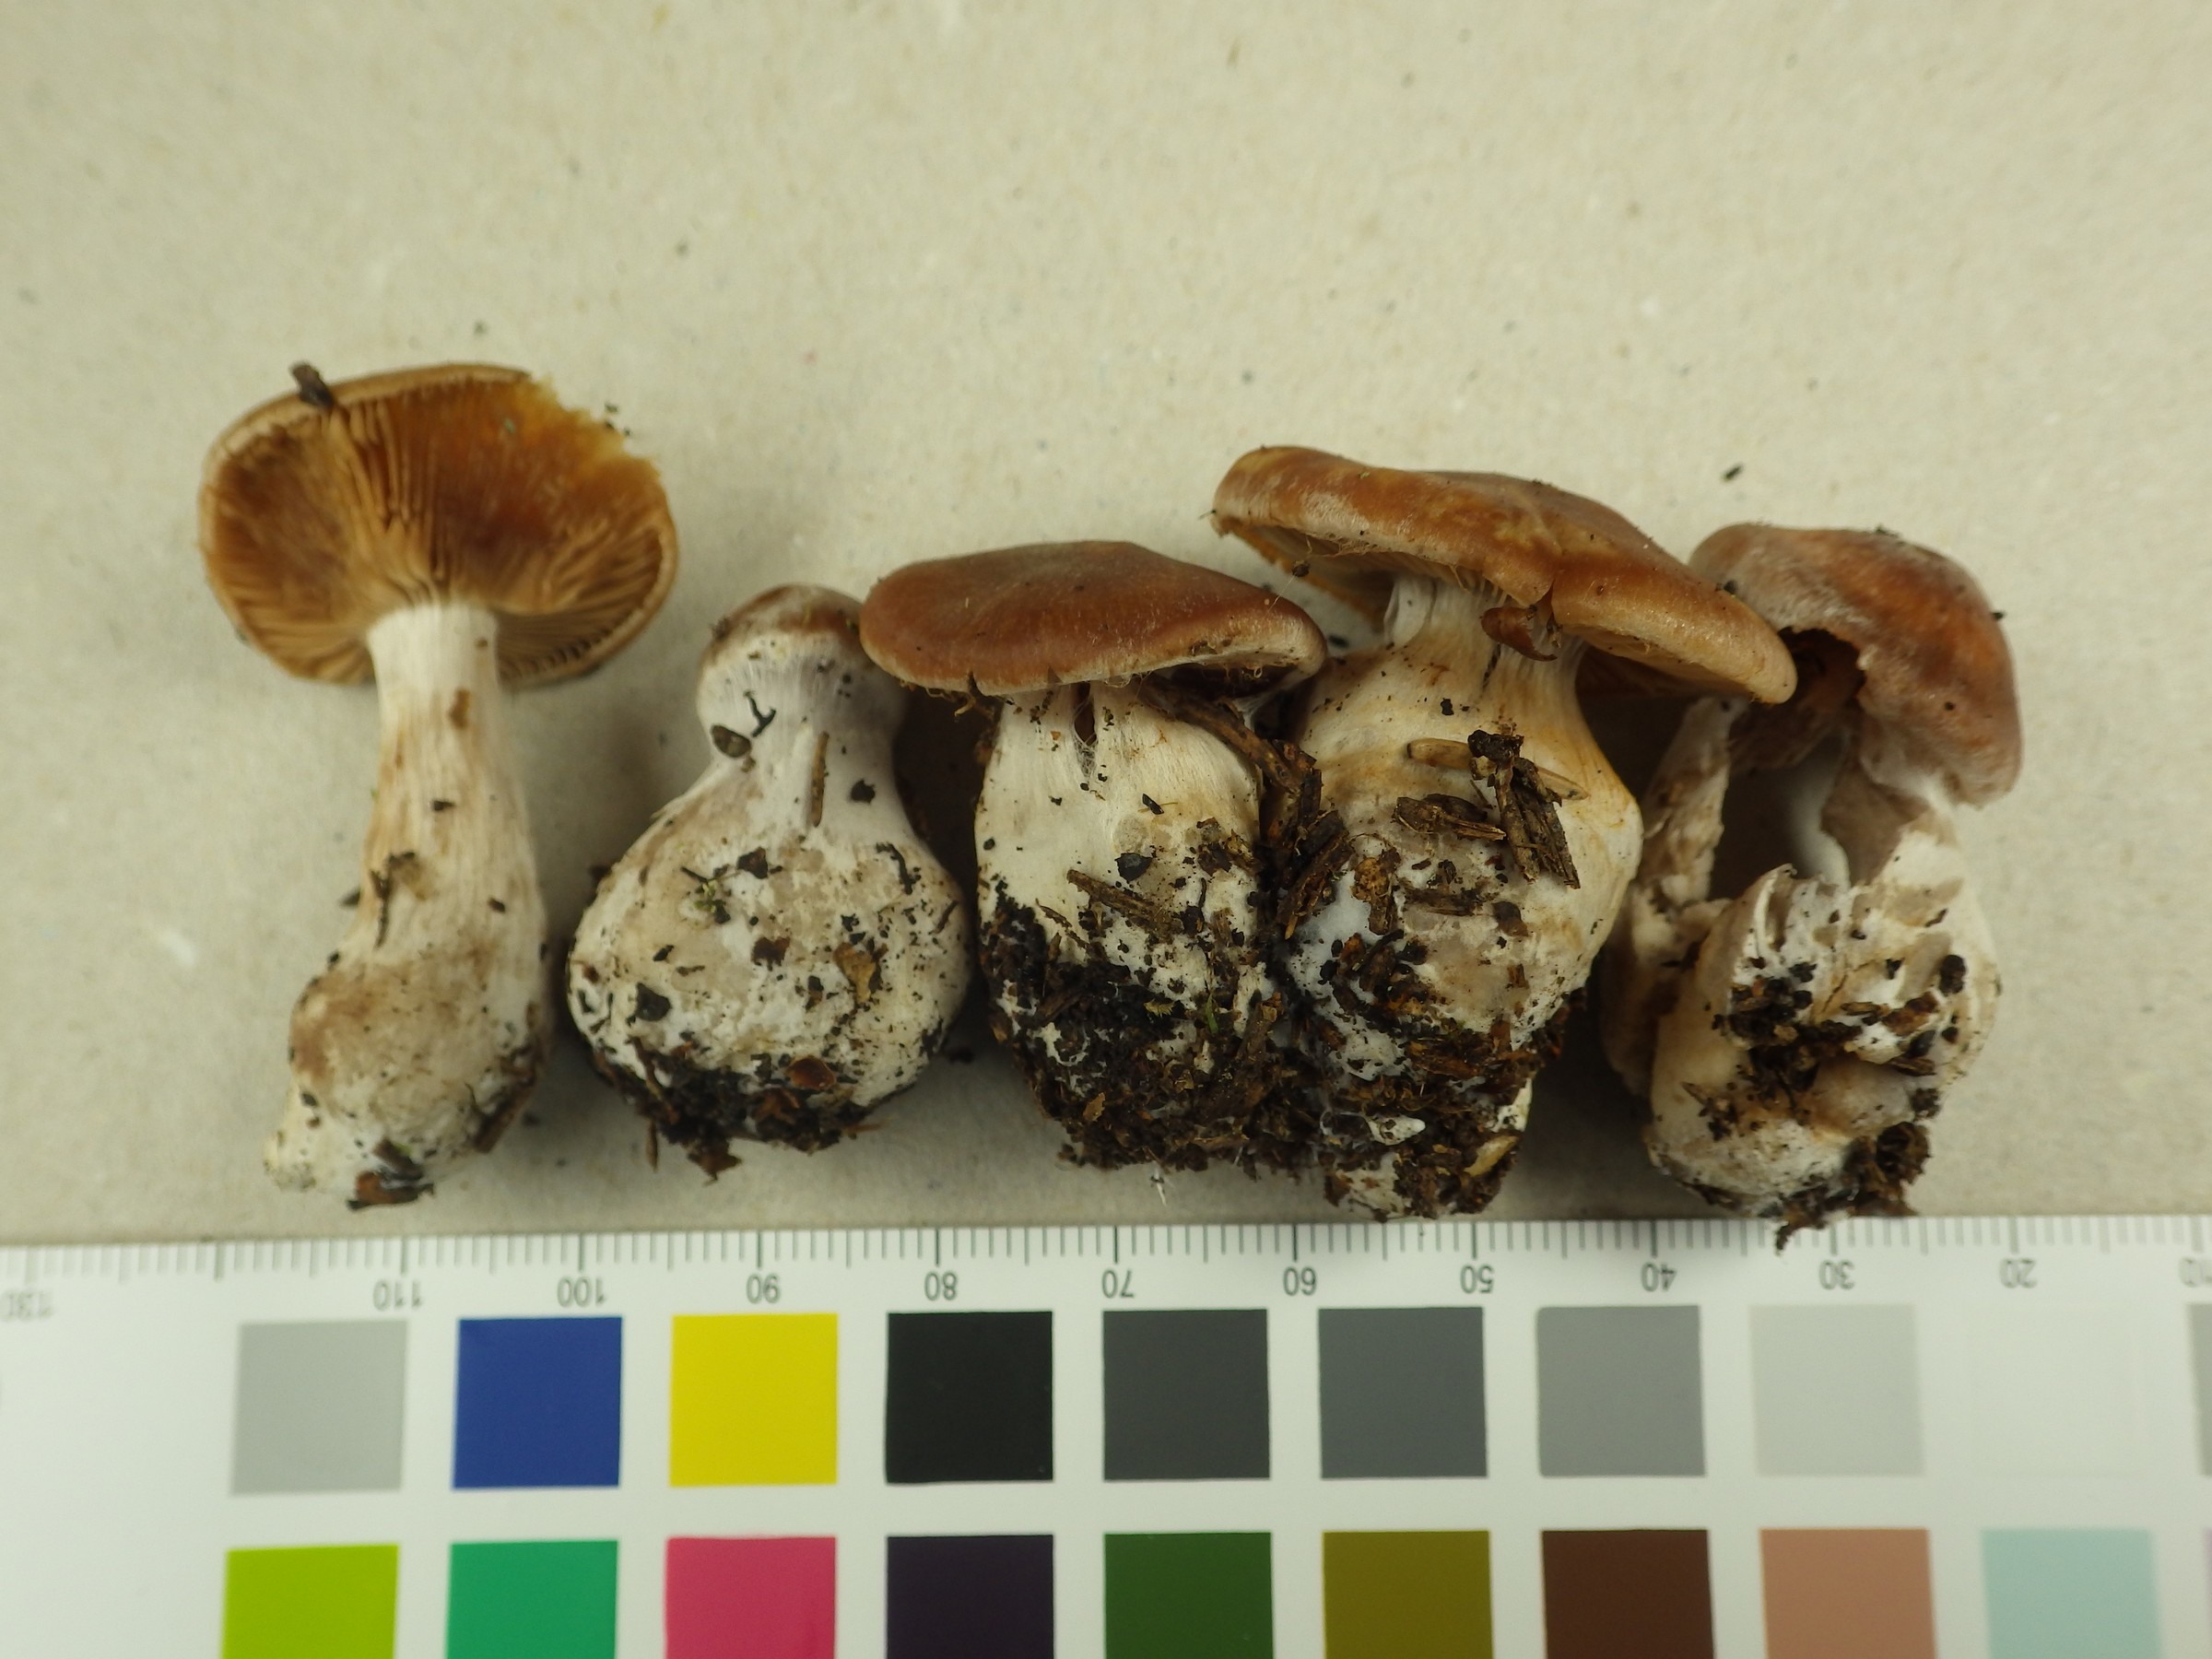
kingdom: Fungi
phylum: Basidiomycota
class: Agaricomycetes
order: Agaricales
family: Cortinariaceae
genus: Cortinarius
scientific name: Cortinarius armeniacus
